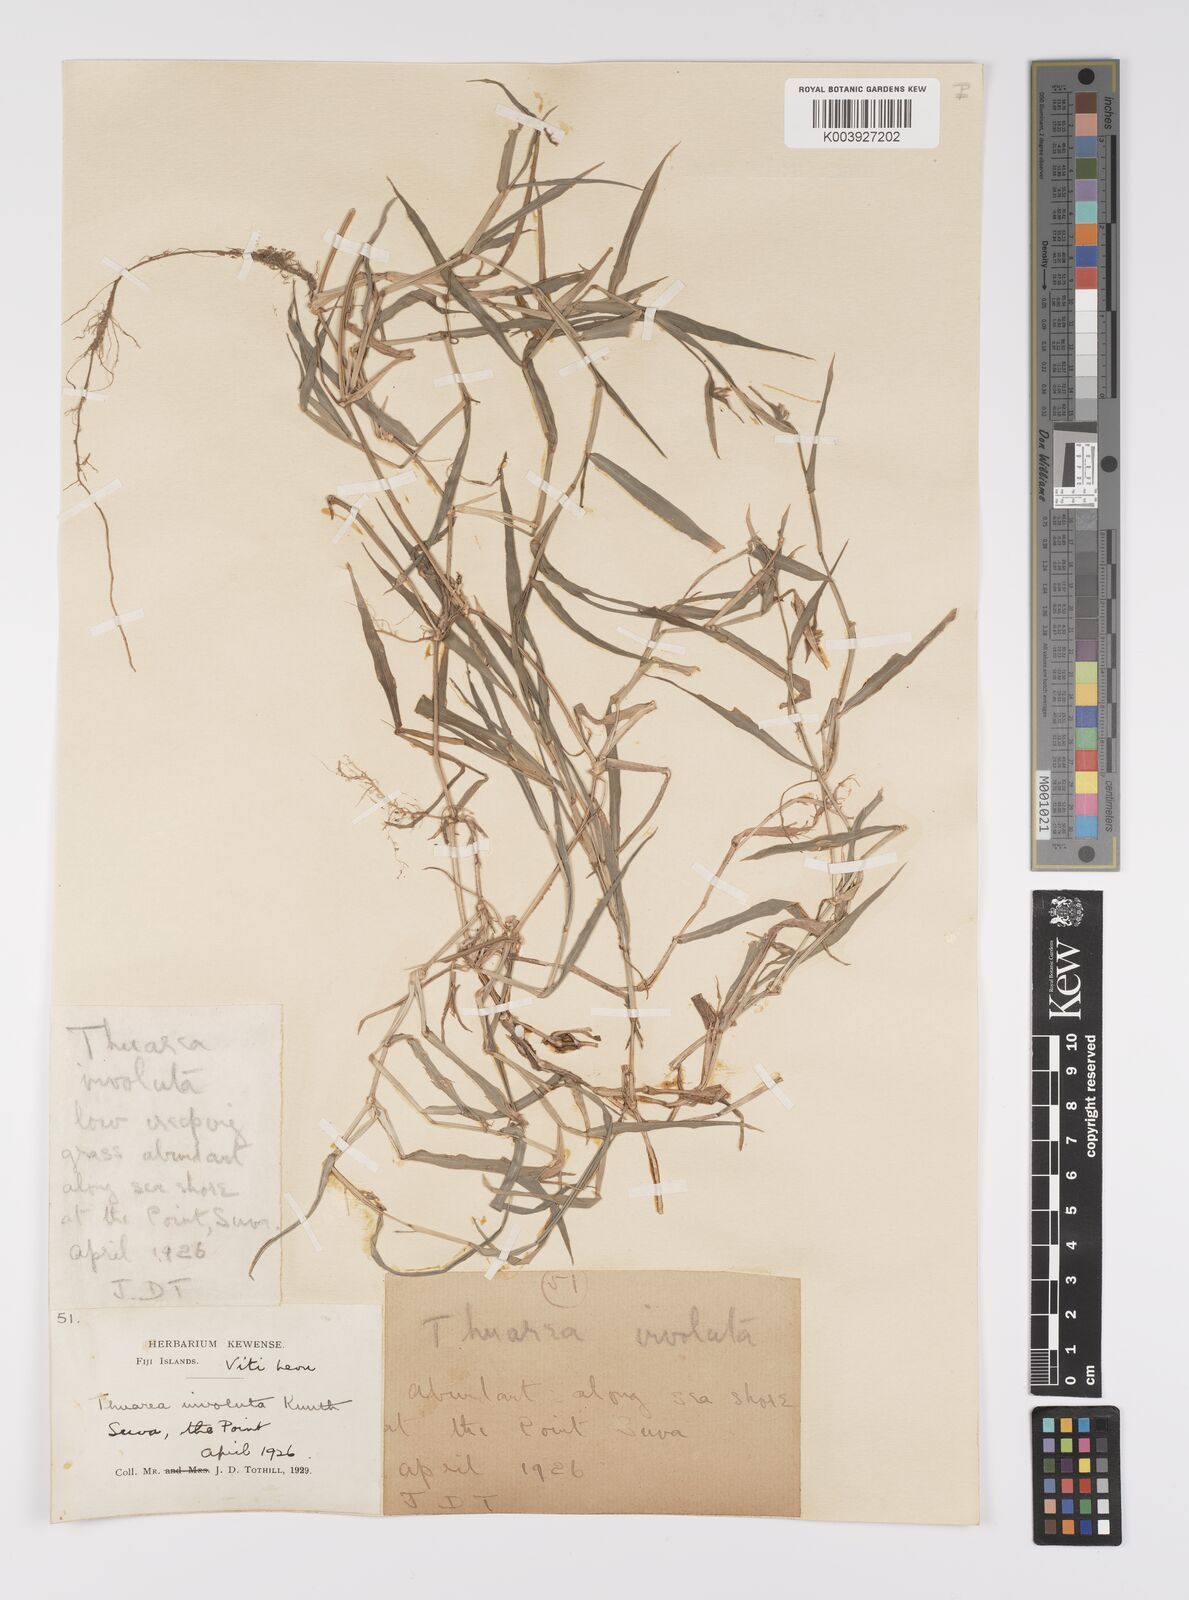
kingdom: Plantae
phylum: Tracheophyta
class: Liliopsida
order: Poales
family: Poaceae
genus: Thuarea
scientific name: Thuarea involuta
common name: Tropical beach grass
